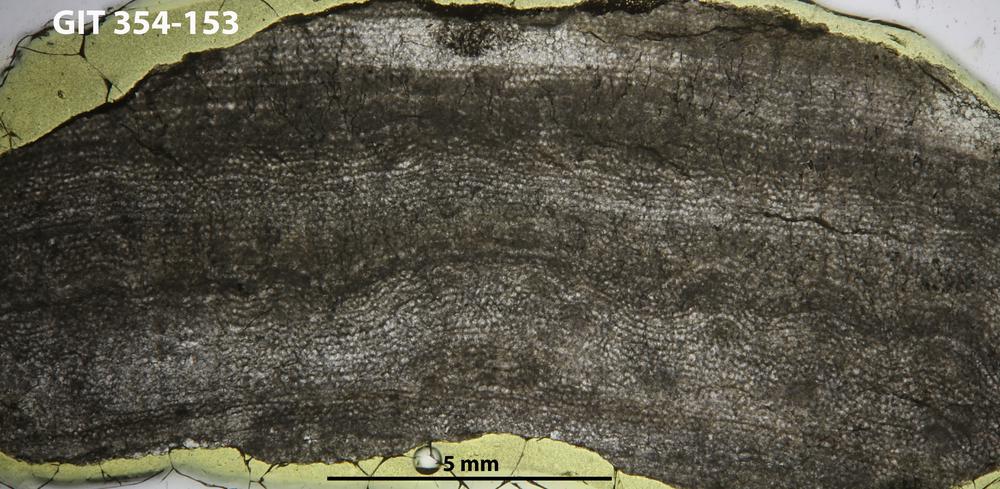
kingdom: Animalia
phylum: Porifera
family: Clathrodictyidae
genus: Clathrodictyon
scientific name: Clathrodictyon kudriavzevi
